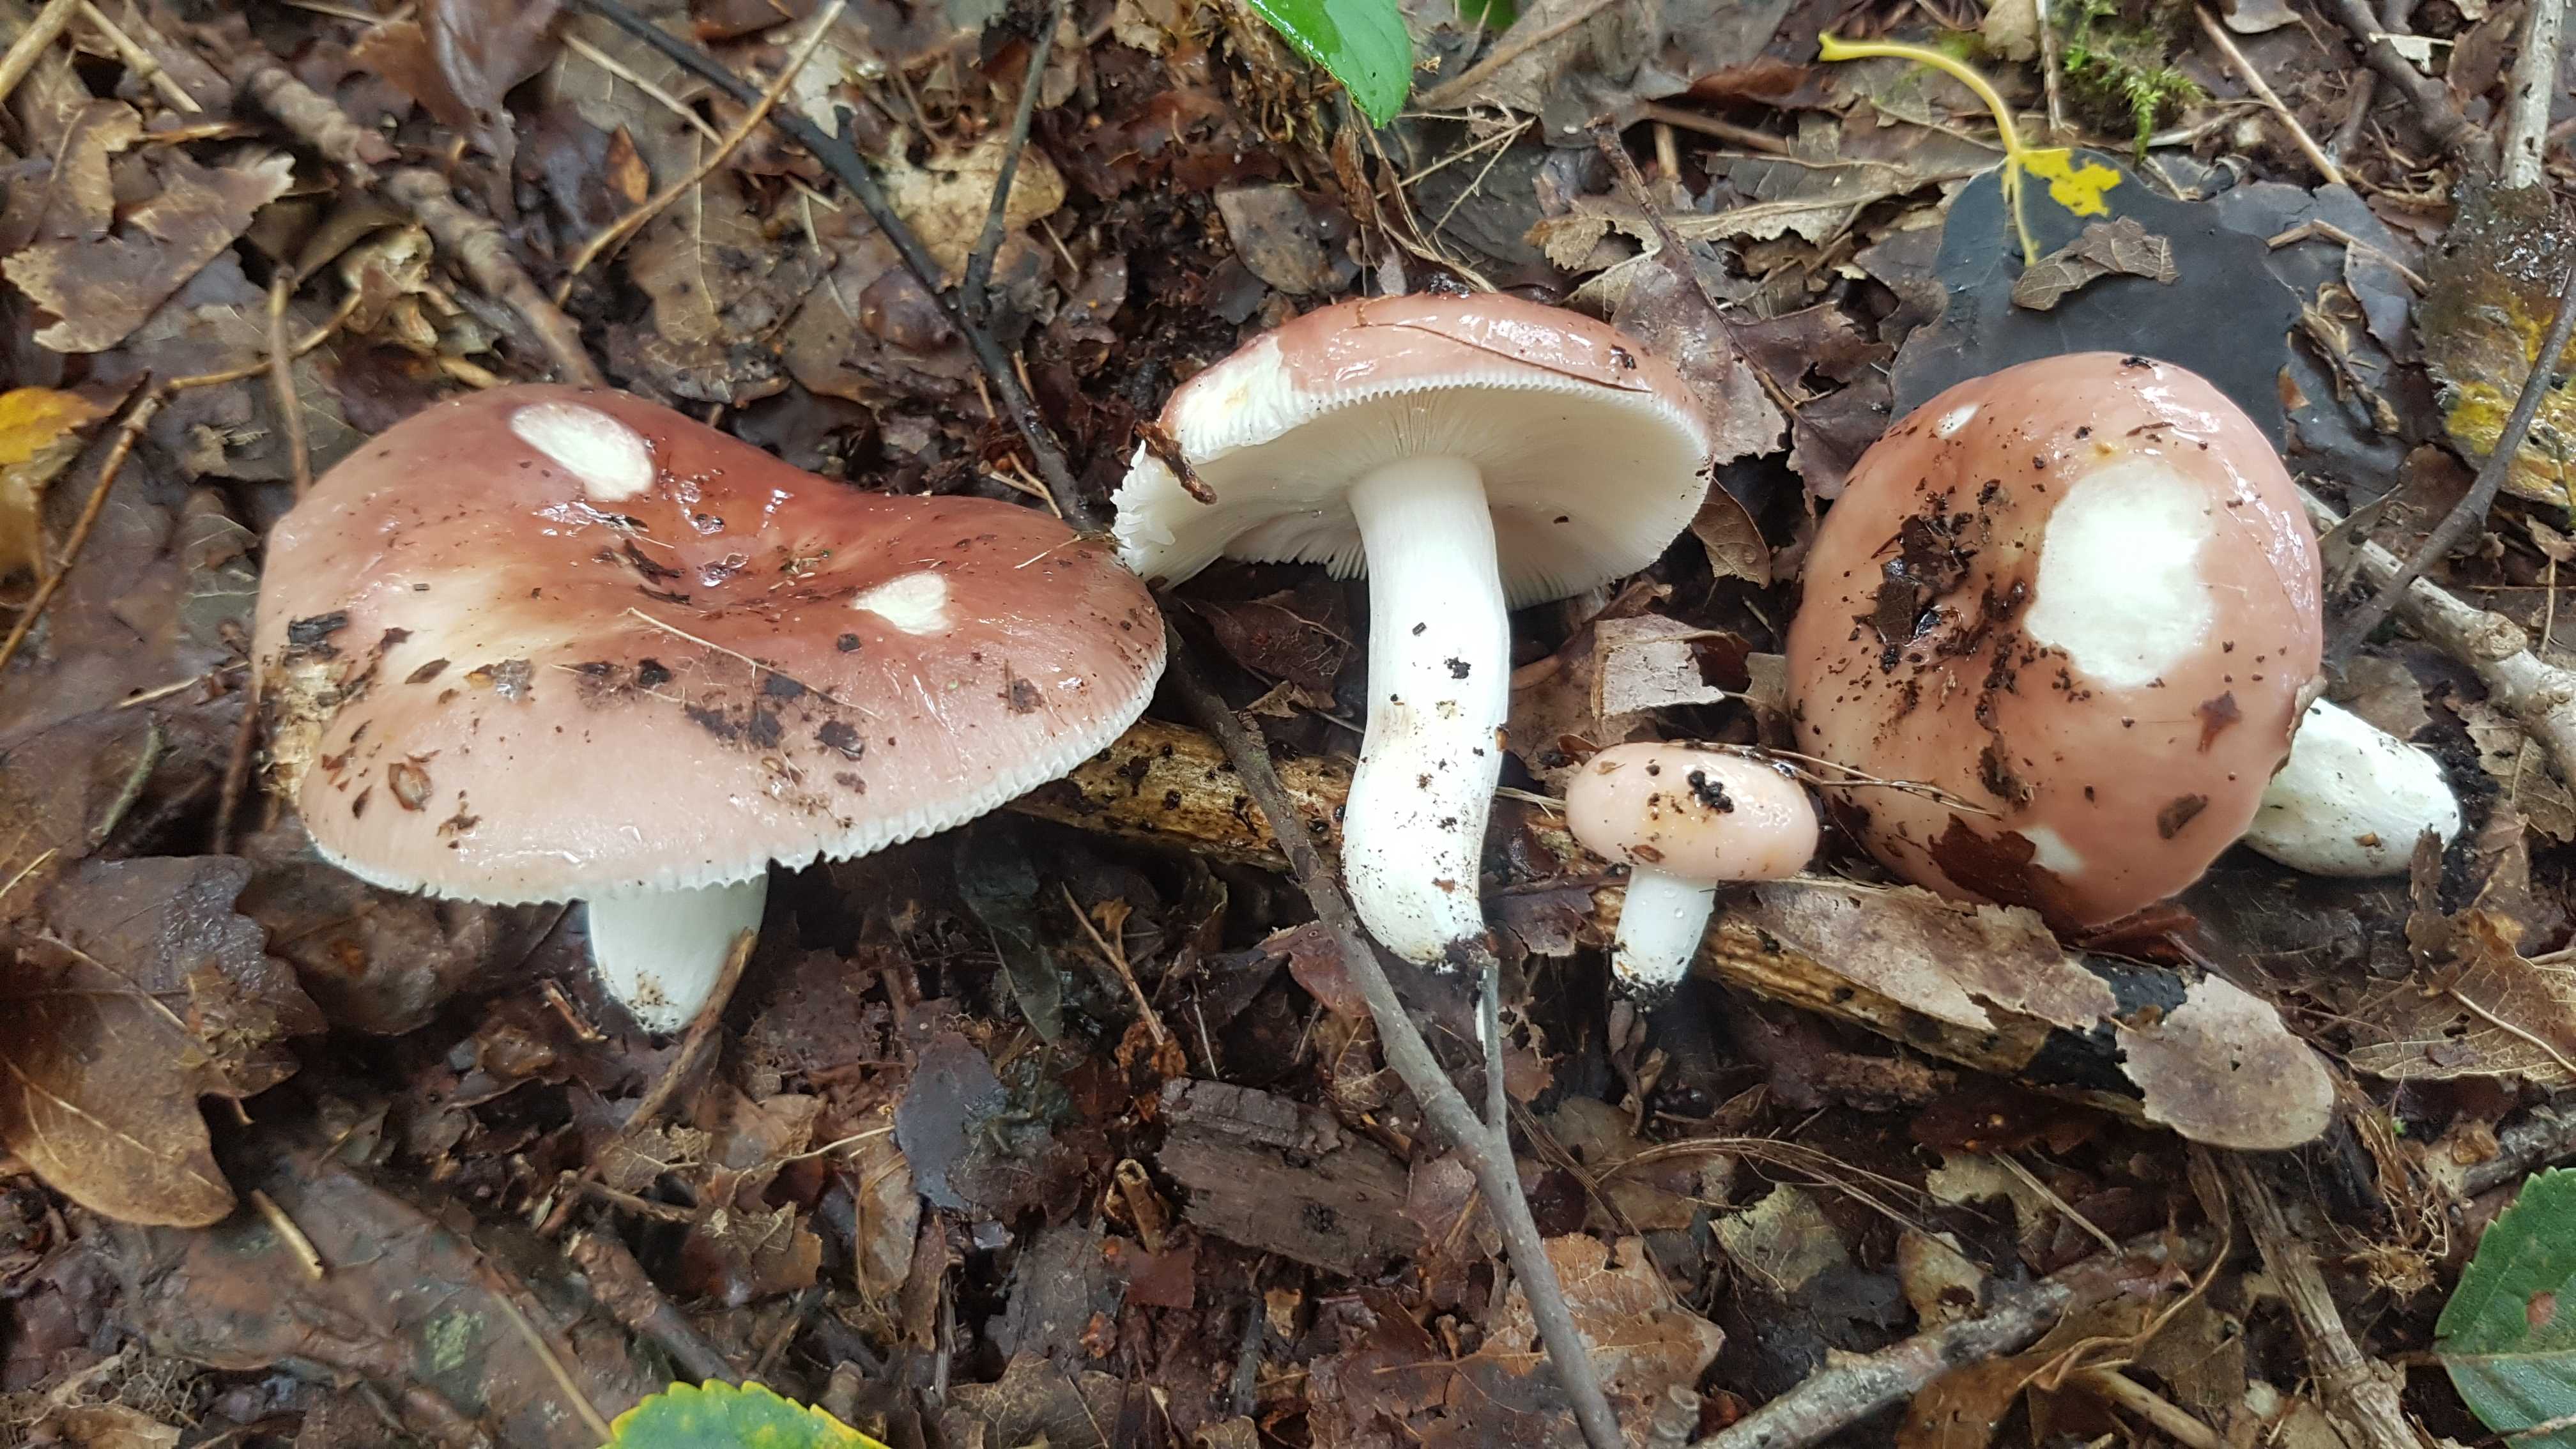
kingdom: Fungi
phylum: Basidiomycota
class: Agaricomycetes
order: Russulales
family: Russulaceae
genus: Russula
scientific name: Russula vesca
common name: spiselig skørhat
